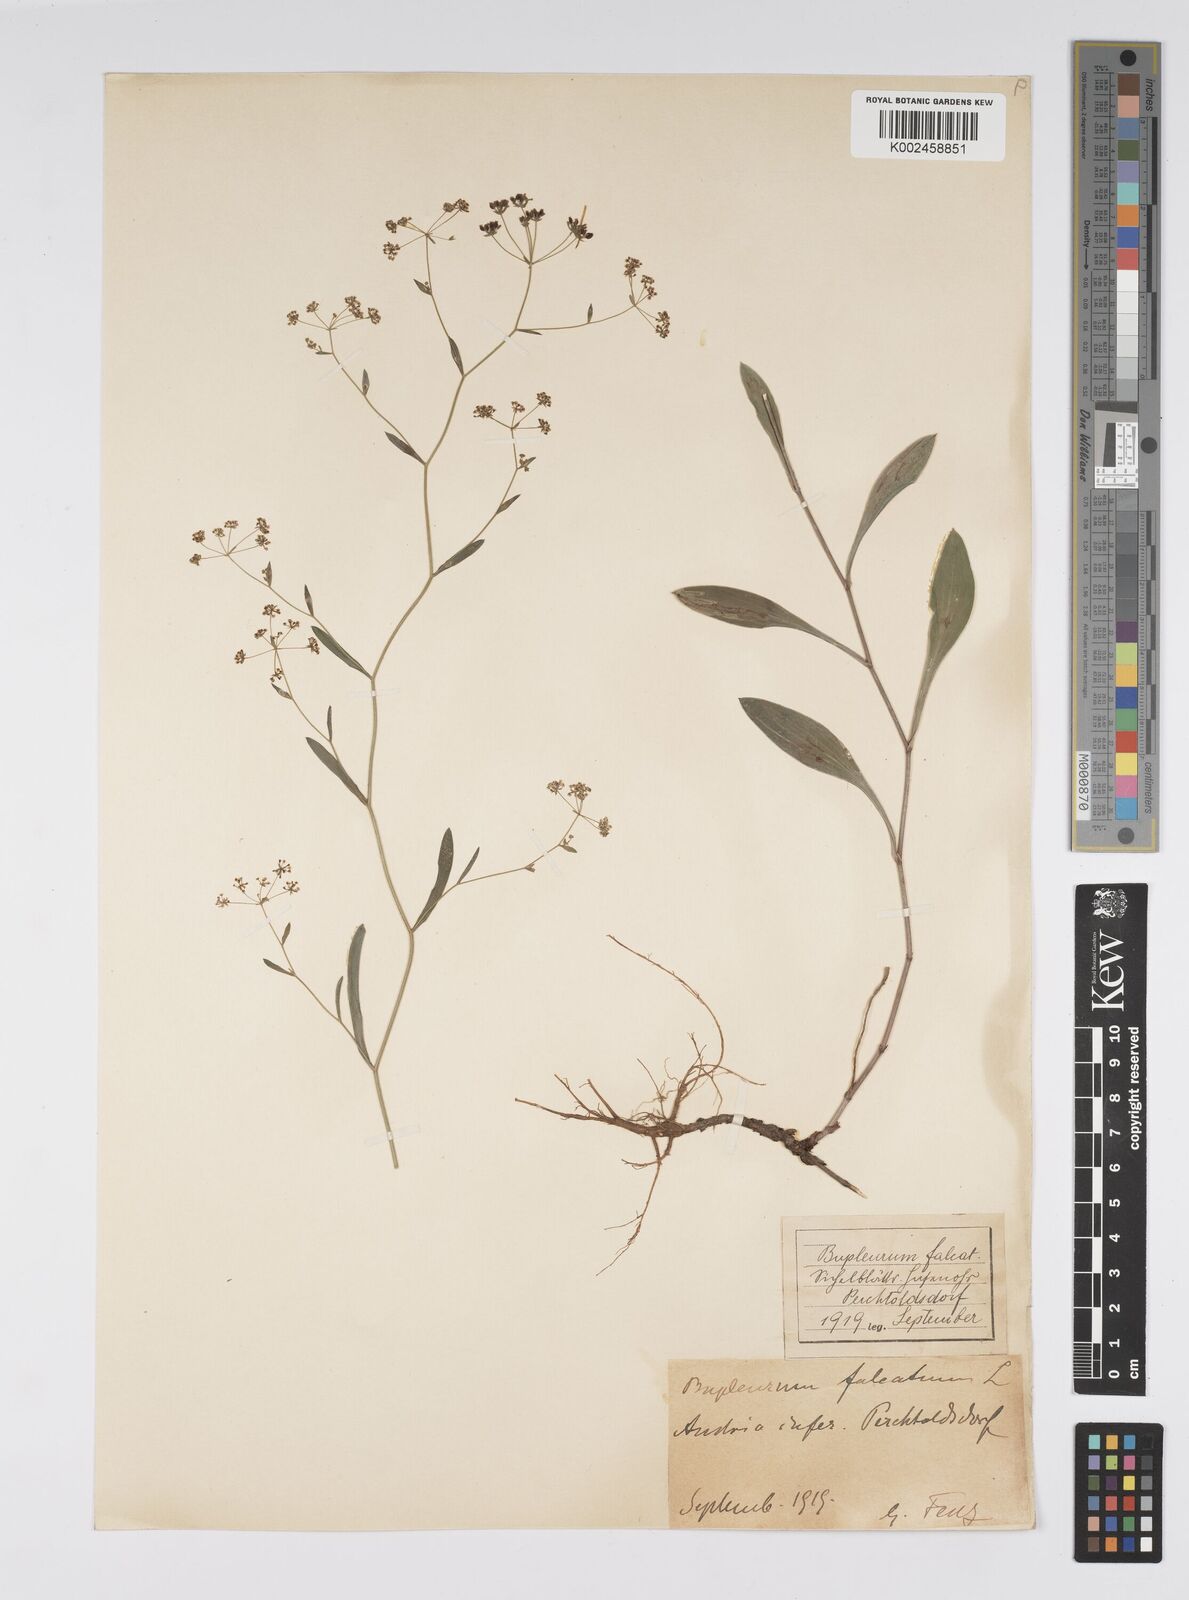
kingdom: Plantae
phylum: Tracheophyta
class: Magnoliopsida
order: Apiales
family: Apiaceae
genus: Bupleurum
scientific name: Bupleurum falcatum
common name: Sickle-leaved hare's-ear
